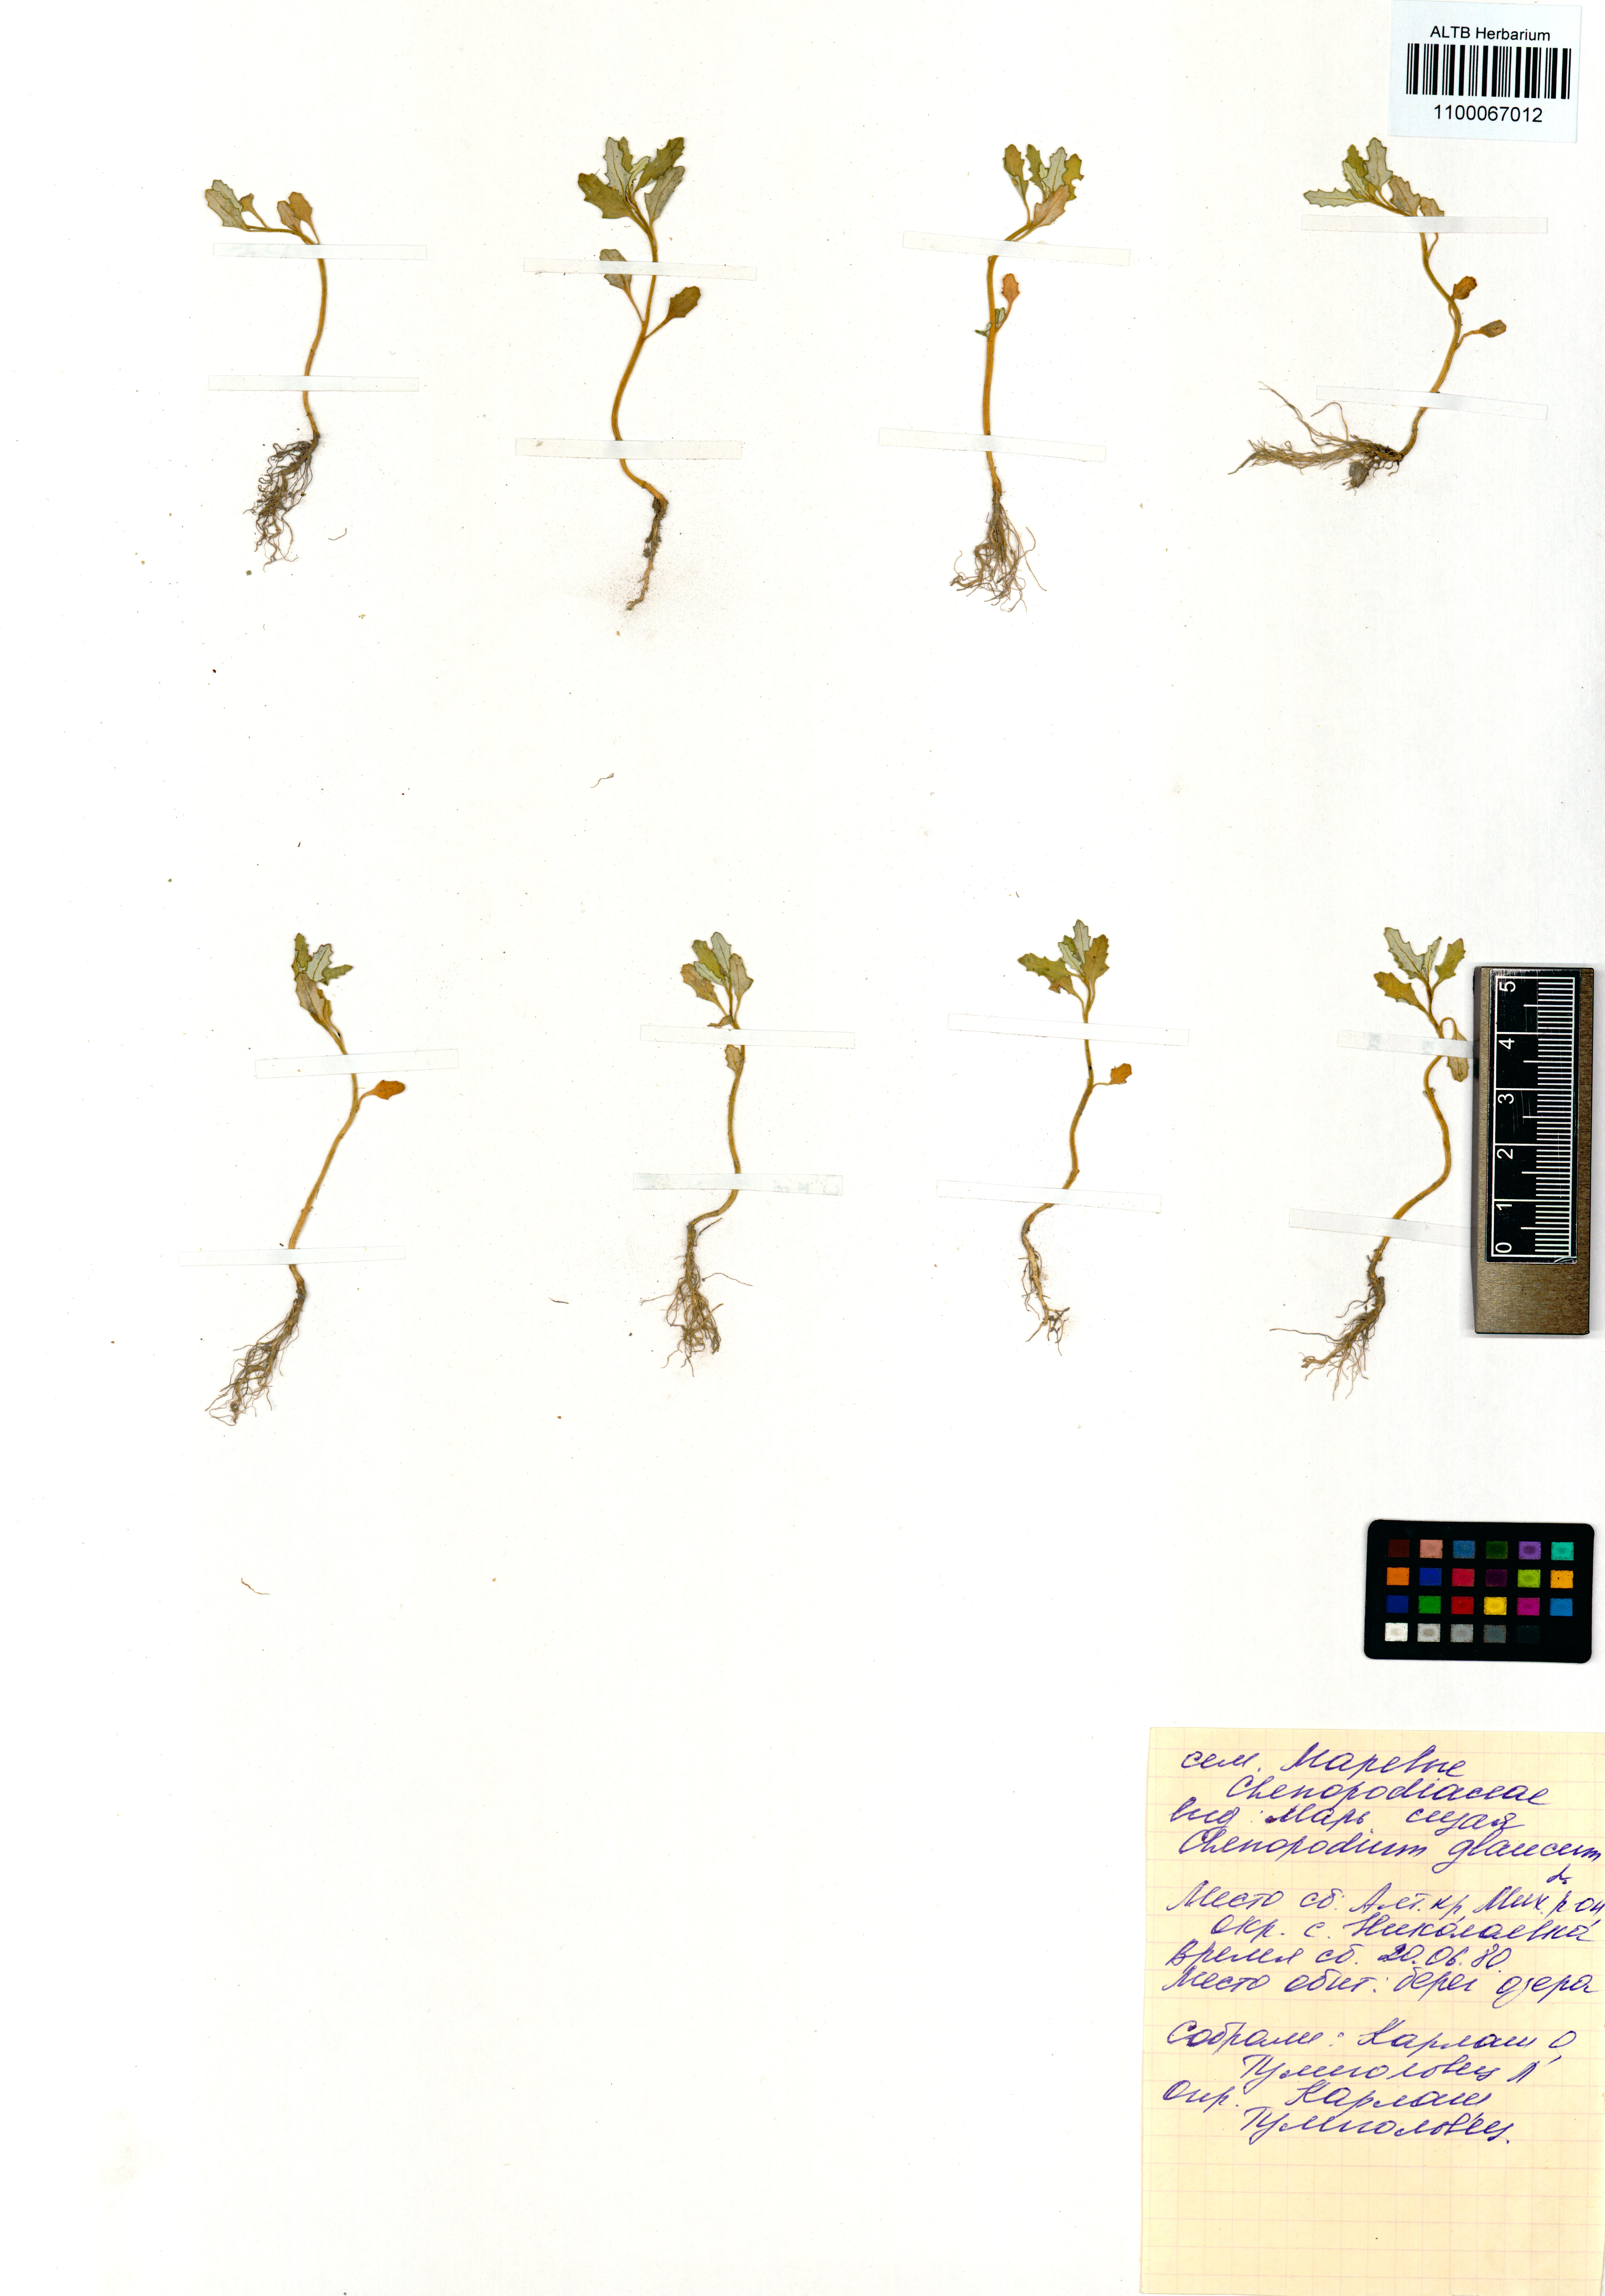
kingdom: Plantae
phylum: Tracheophyta
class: Magnoliopsida
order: Caryophyllales
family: Amaranthaceae
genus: Oxybasis
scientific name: Oxybasis glauca
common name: Glaucous goosefoot
